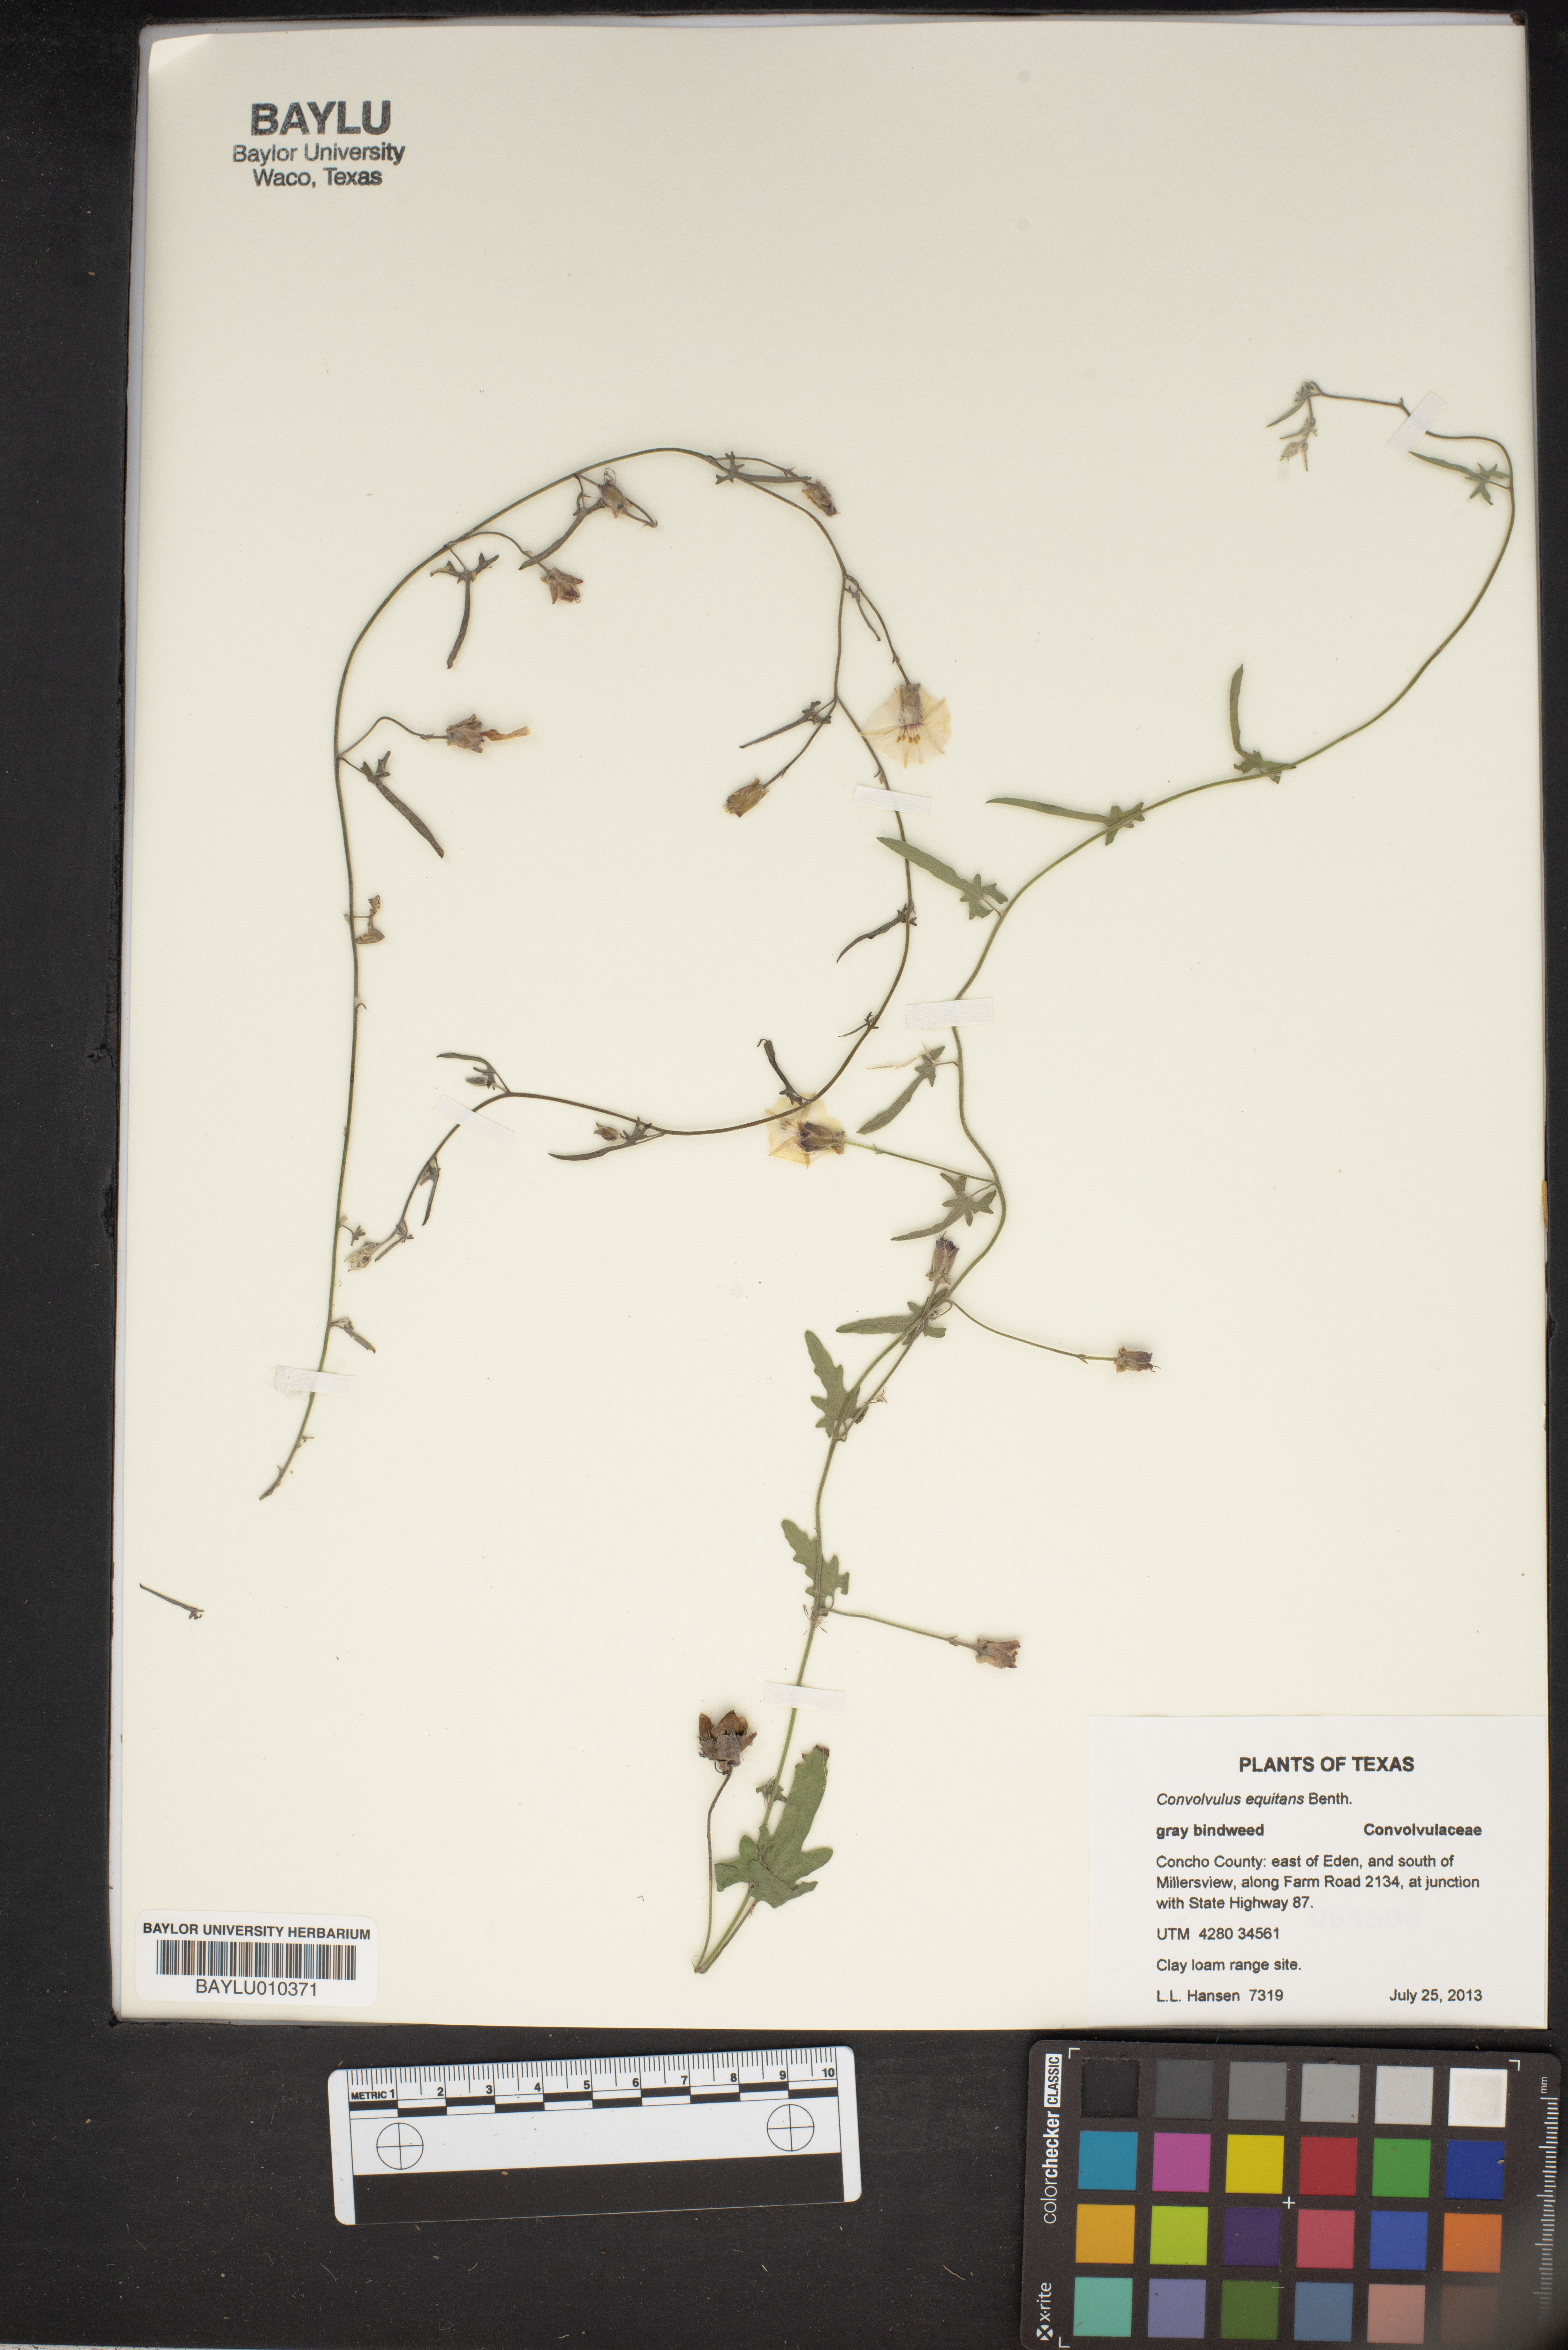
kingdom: Plantae
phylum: Tracheophyta
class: Magnoliopsida
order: Solanales
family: Convolvulaceae
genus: Convolvulus
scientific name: Convolvulus equitans
